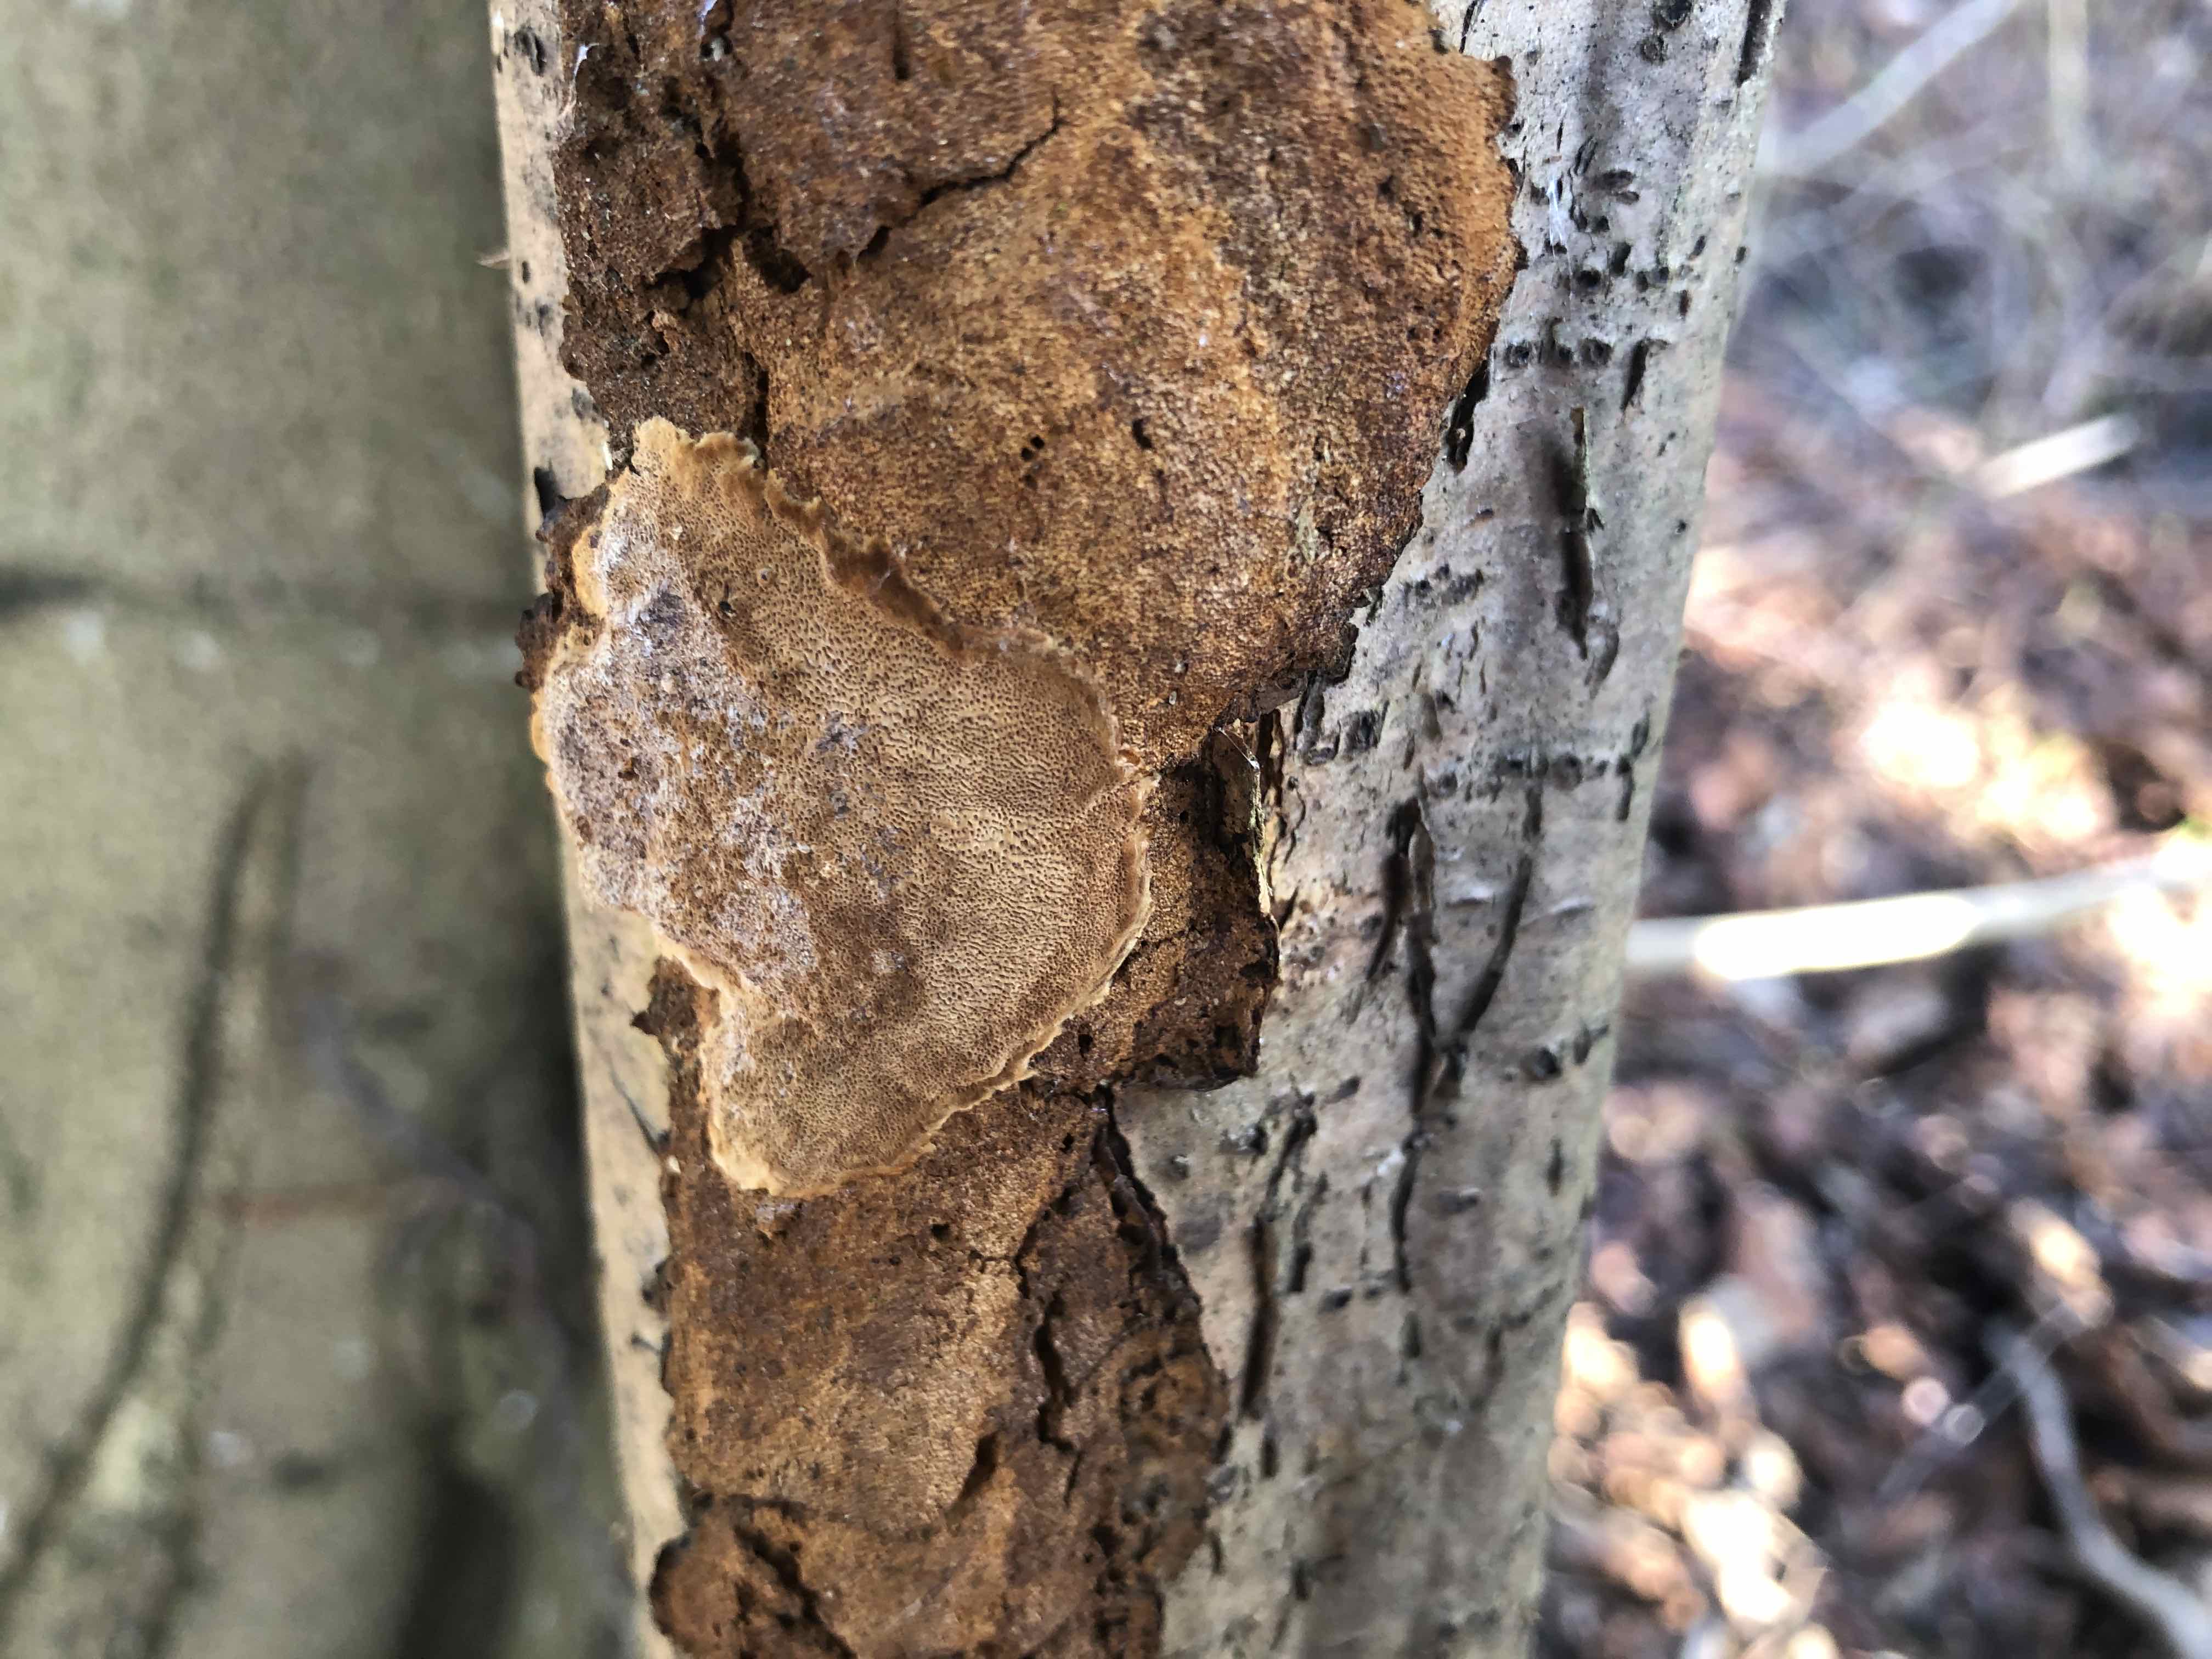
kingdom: Fungi
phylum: Basidiomycota
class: Agaricomycetes
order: Hymenochaetales
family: Hymenochaetaceae
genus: Fuscoporia
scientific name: Fuscoporia ferrea
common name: skorpe-ildporesvamp
